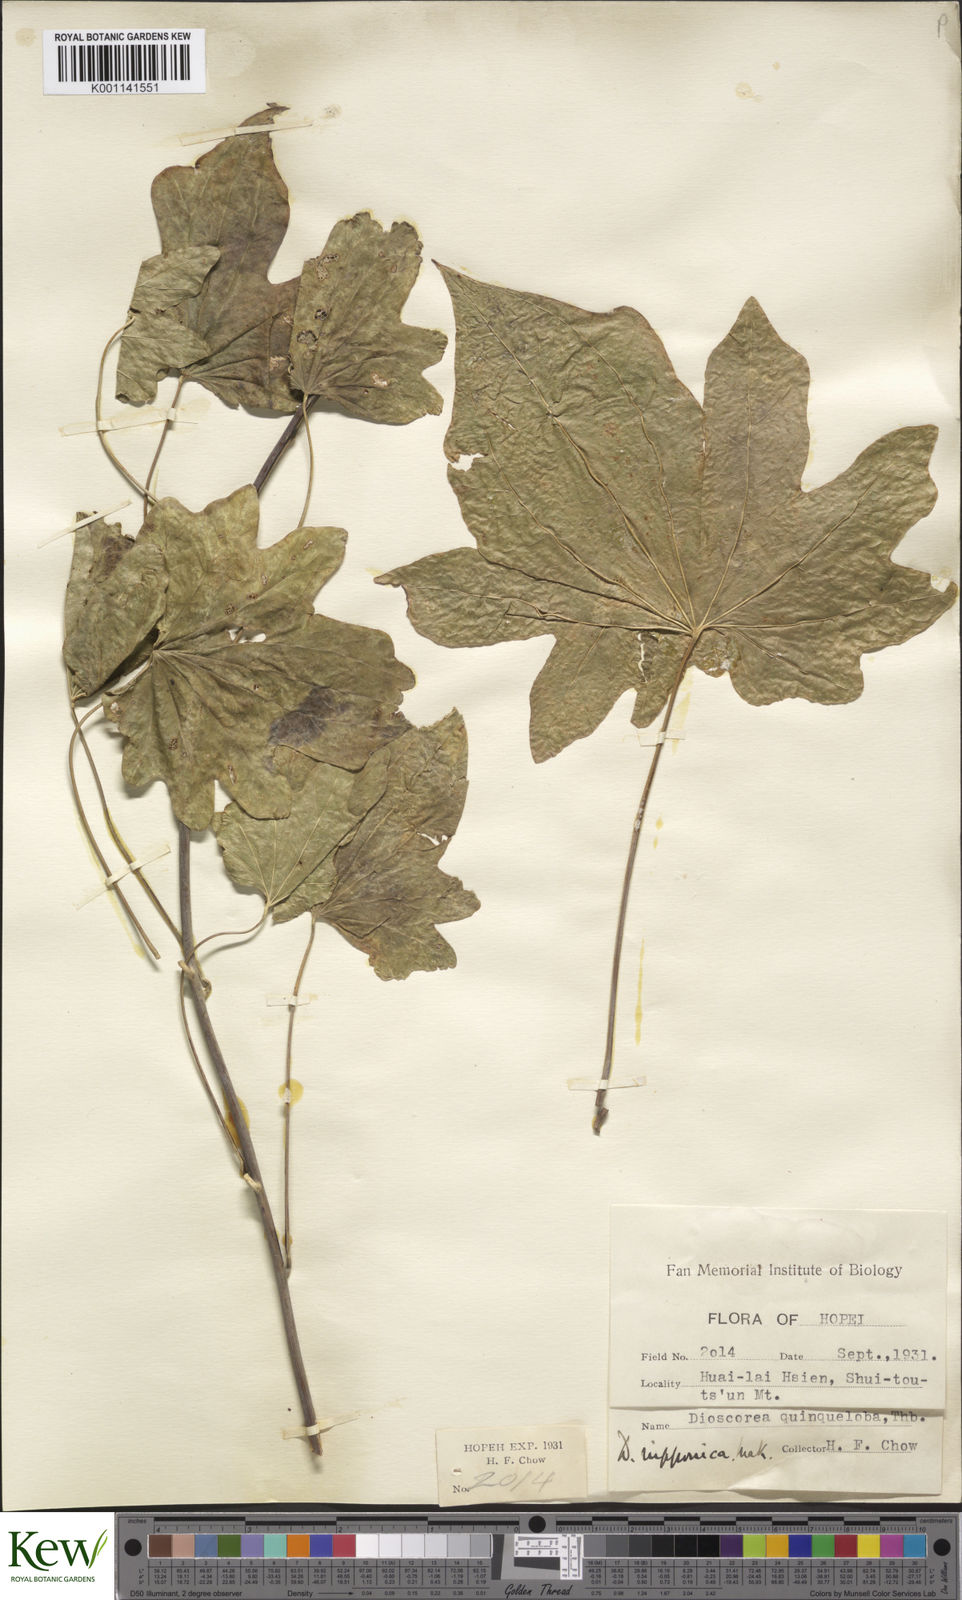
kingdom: Plantae
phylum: Tracheophyta
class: Liliopsida
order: Dioscoreales
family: Dioscoreaceae
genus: Dioscorea
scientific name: Dioscorea nipponica
